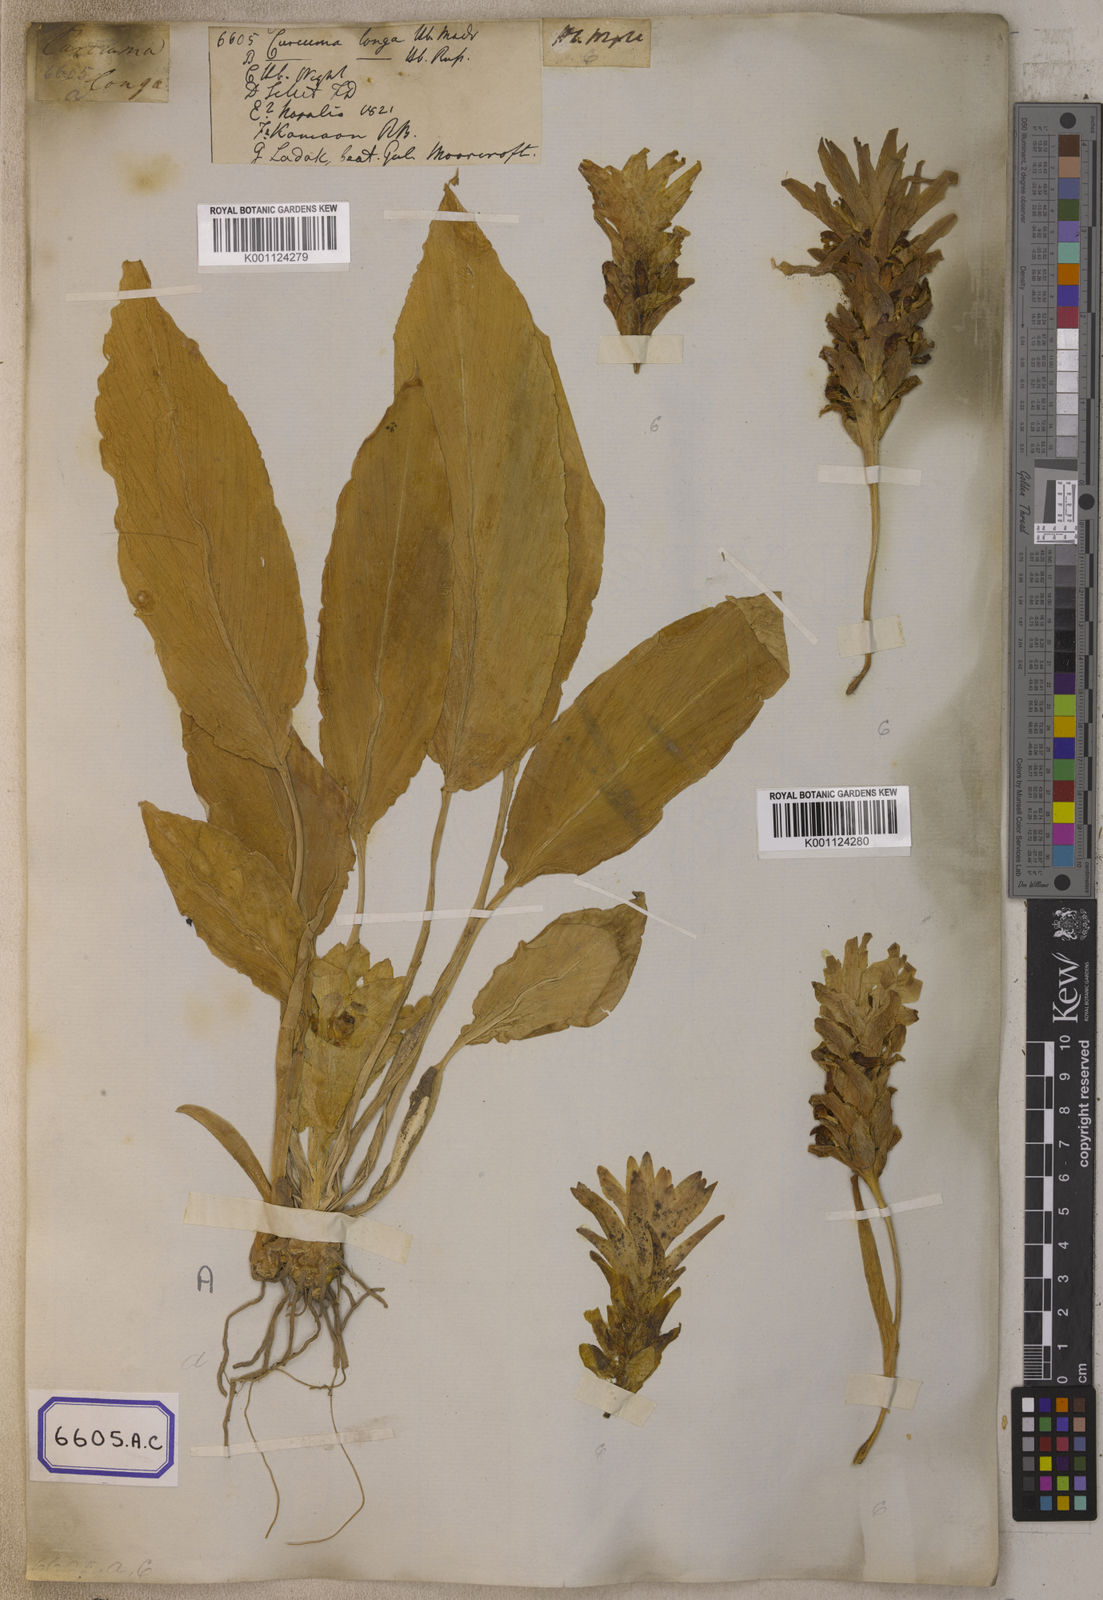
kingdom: Plantae
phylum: Tracheophyta
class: Liliopsida
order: Zingiberales
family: Zingiberaceae
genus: Curcuma
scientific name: Curcuma longa
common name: Turmeric
